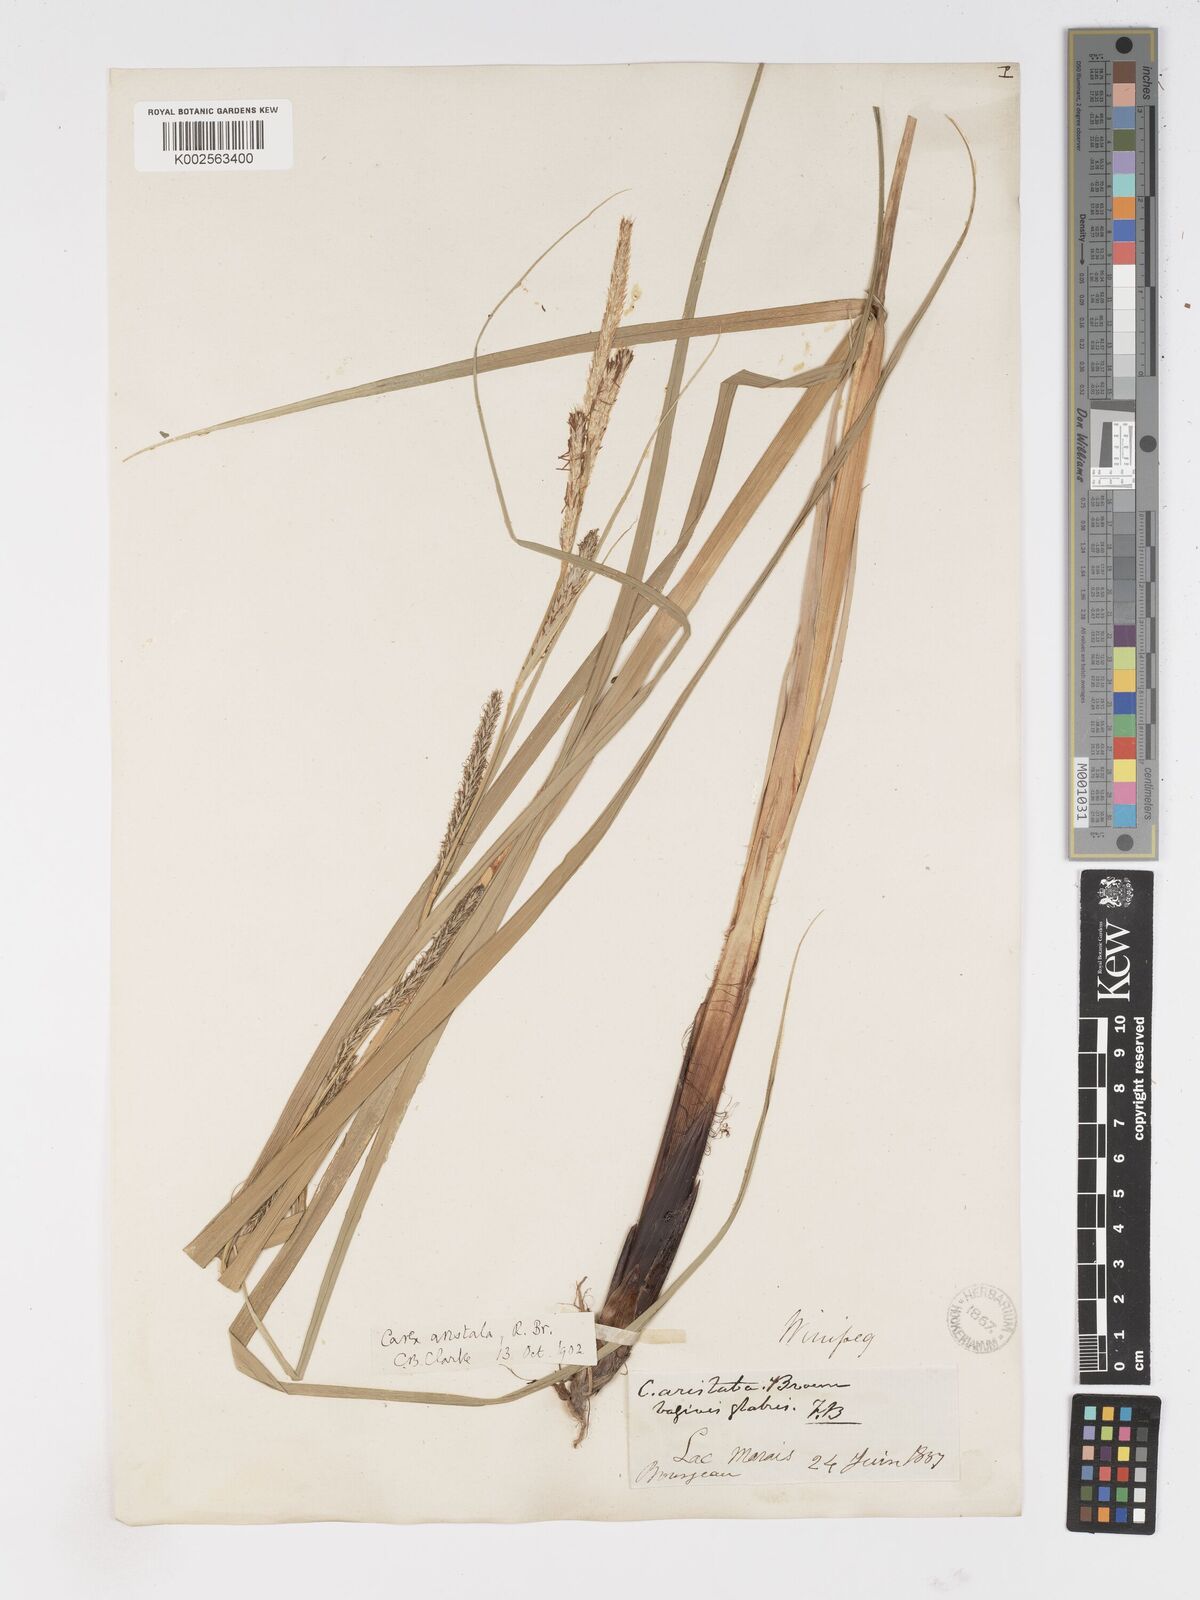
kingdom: Plantae
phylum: Tracheophyta
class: Liliopsida
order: Poales
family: Cyperaceae
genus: Carex
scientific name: Carex atherodes
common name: Wheat sedge
